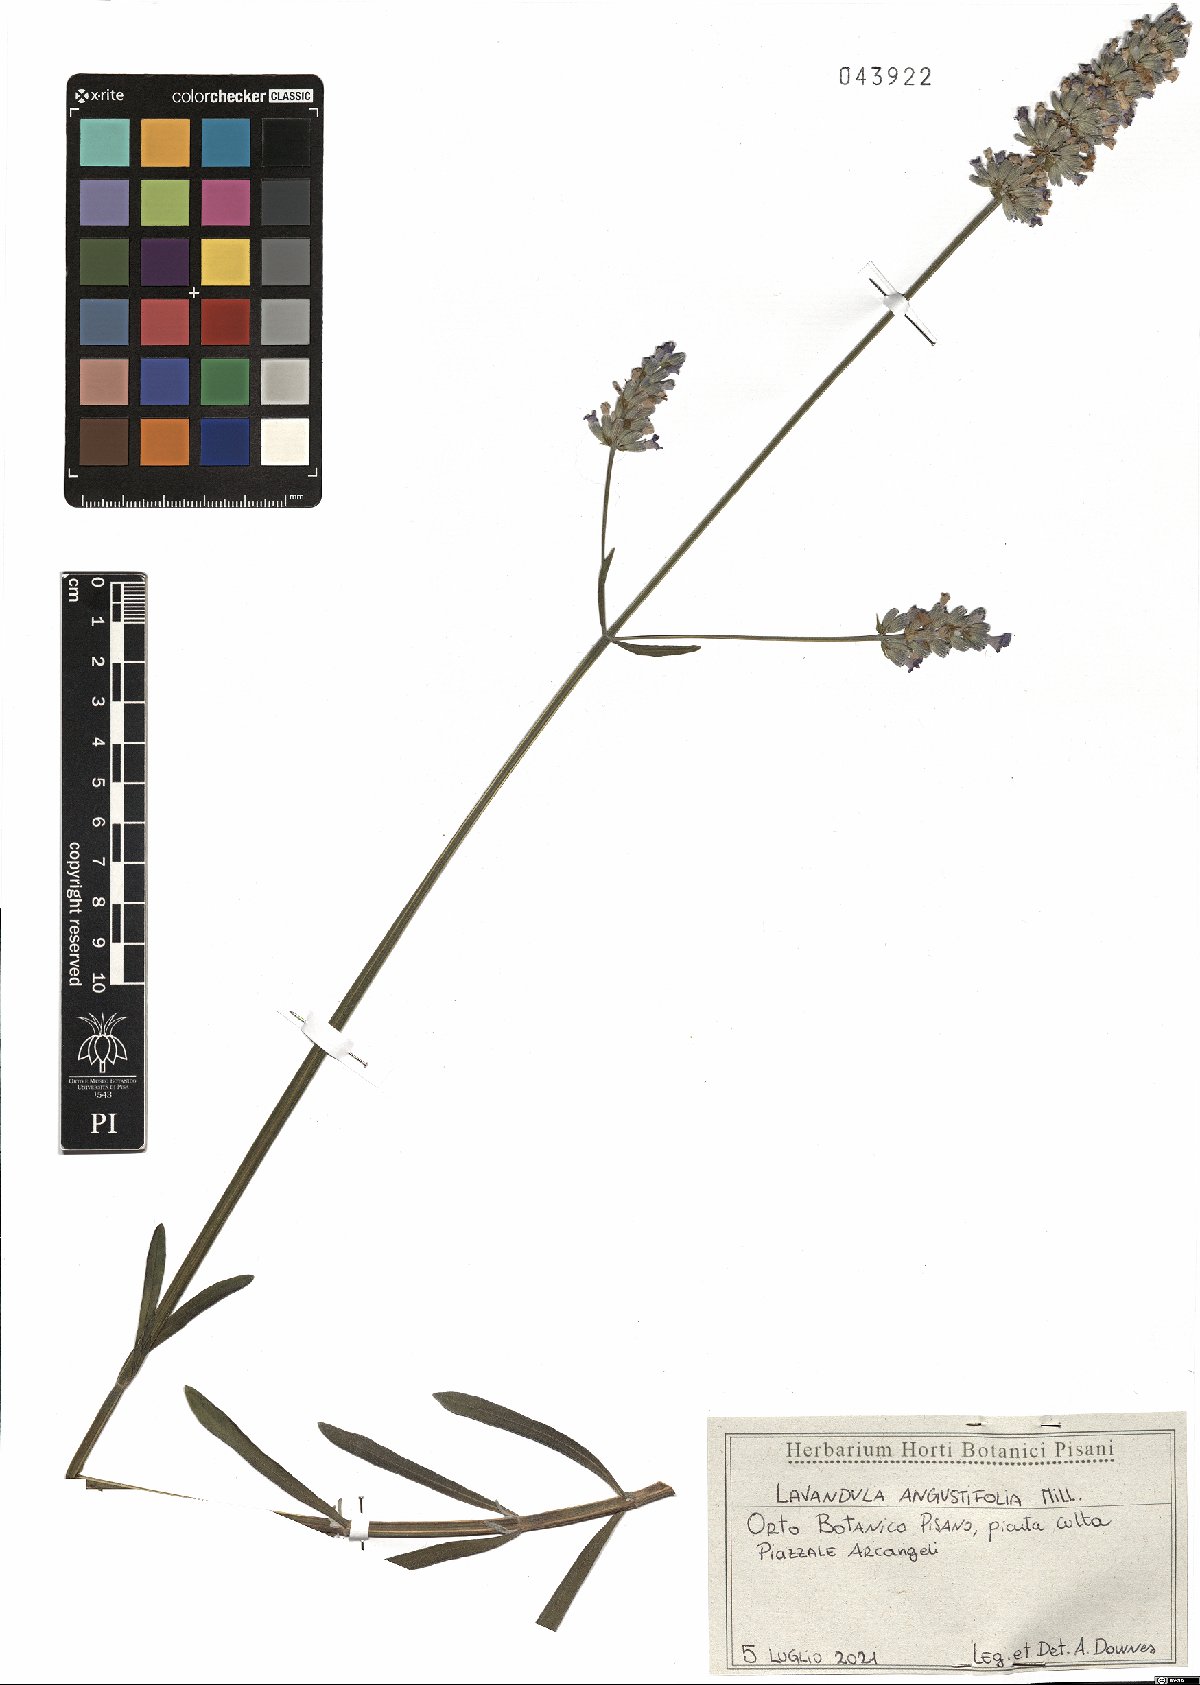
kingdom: Plantae
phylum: Tracheophyta
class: Magnoliopsida
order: Lamiales
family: Lamiaceae
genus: Lavandula
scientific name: Lavandula angustifolia
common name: Garden lavender
